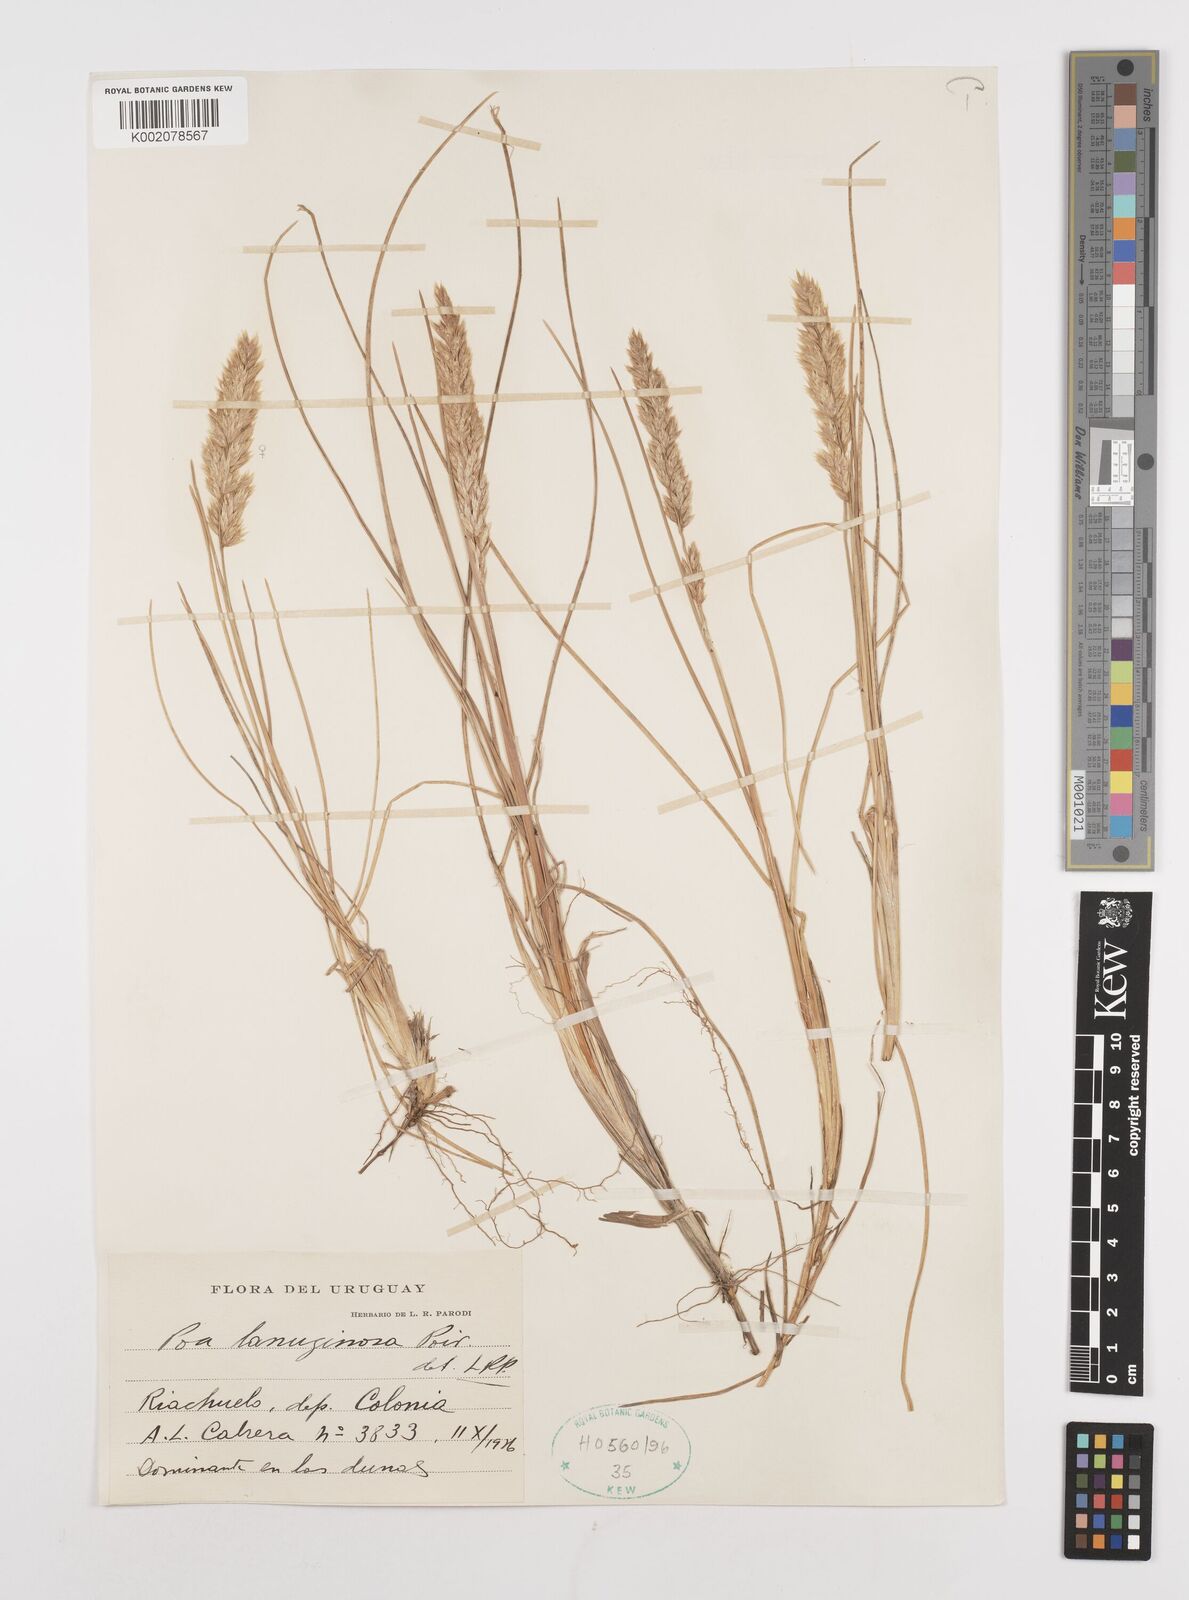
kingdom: Plantae
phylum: Tracheophyta
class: Liliopsida
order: Poales
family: Poaceae
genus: Poa
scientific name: Poa lanuginosa
